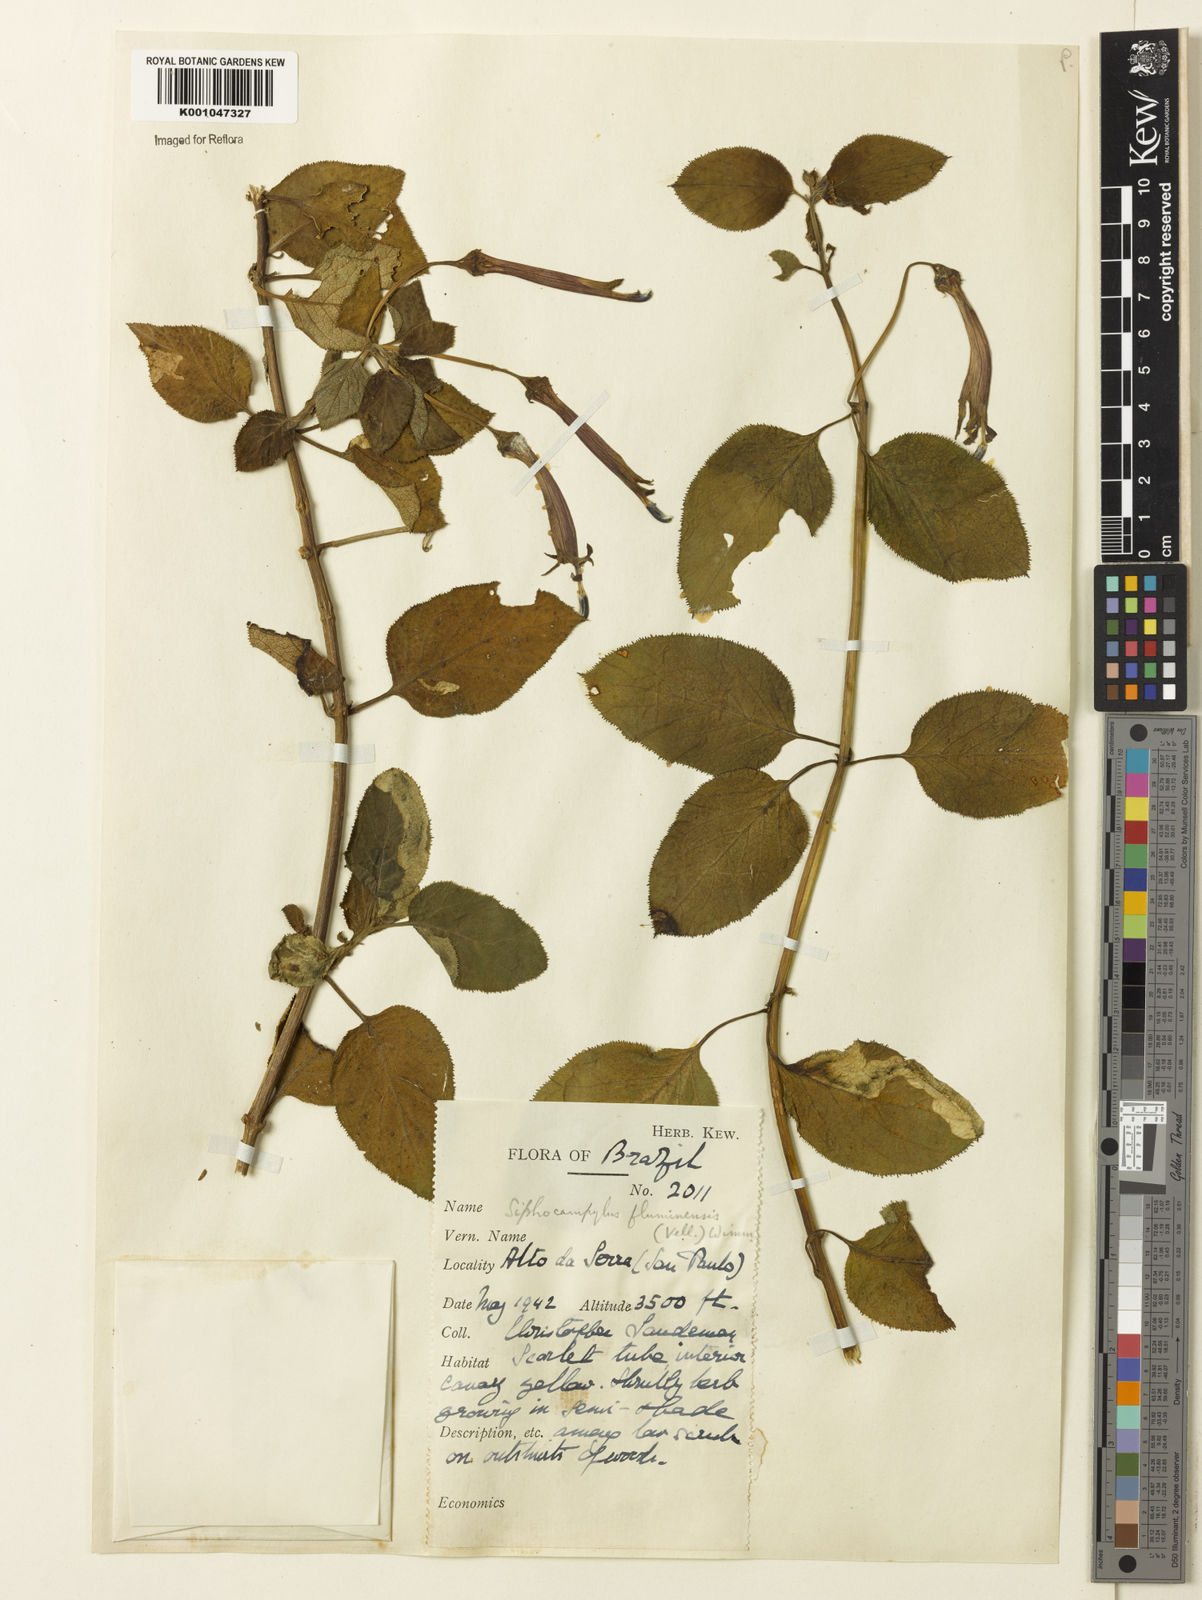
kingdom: Plantae
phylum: Tracheophyta
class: Magnoliopsida
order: Asterales
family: Campanulaceae
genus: Siphocampylus
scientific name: Siphocampylus fluminensis
